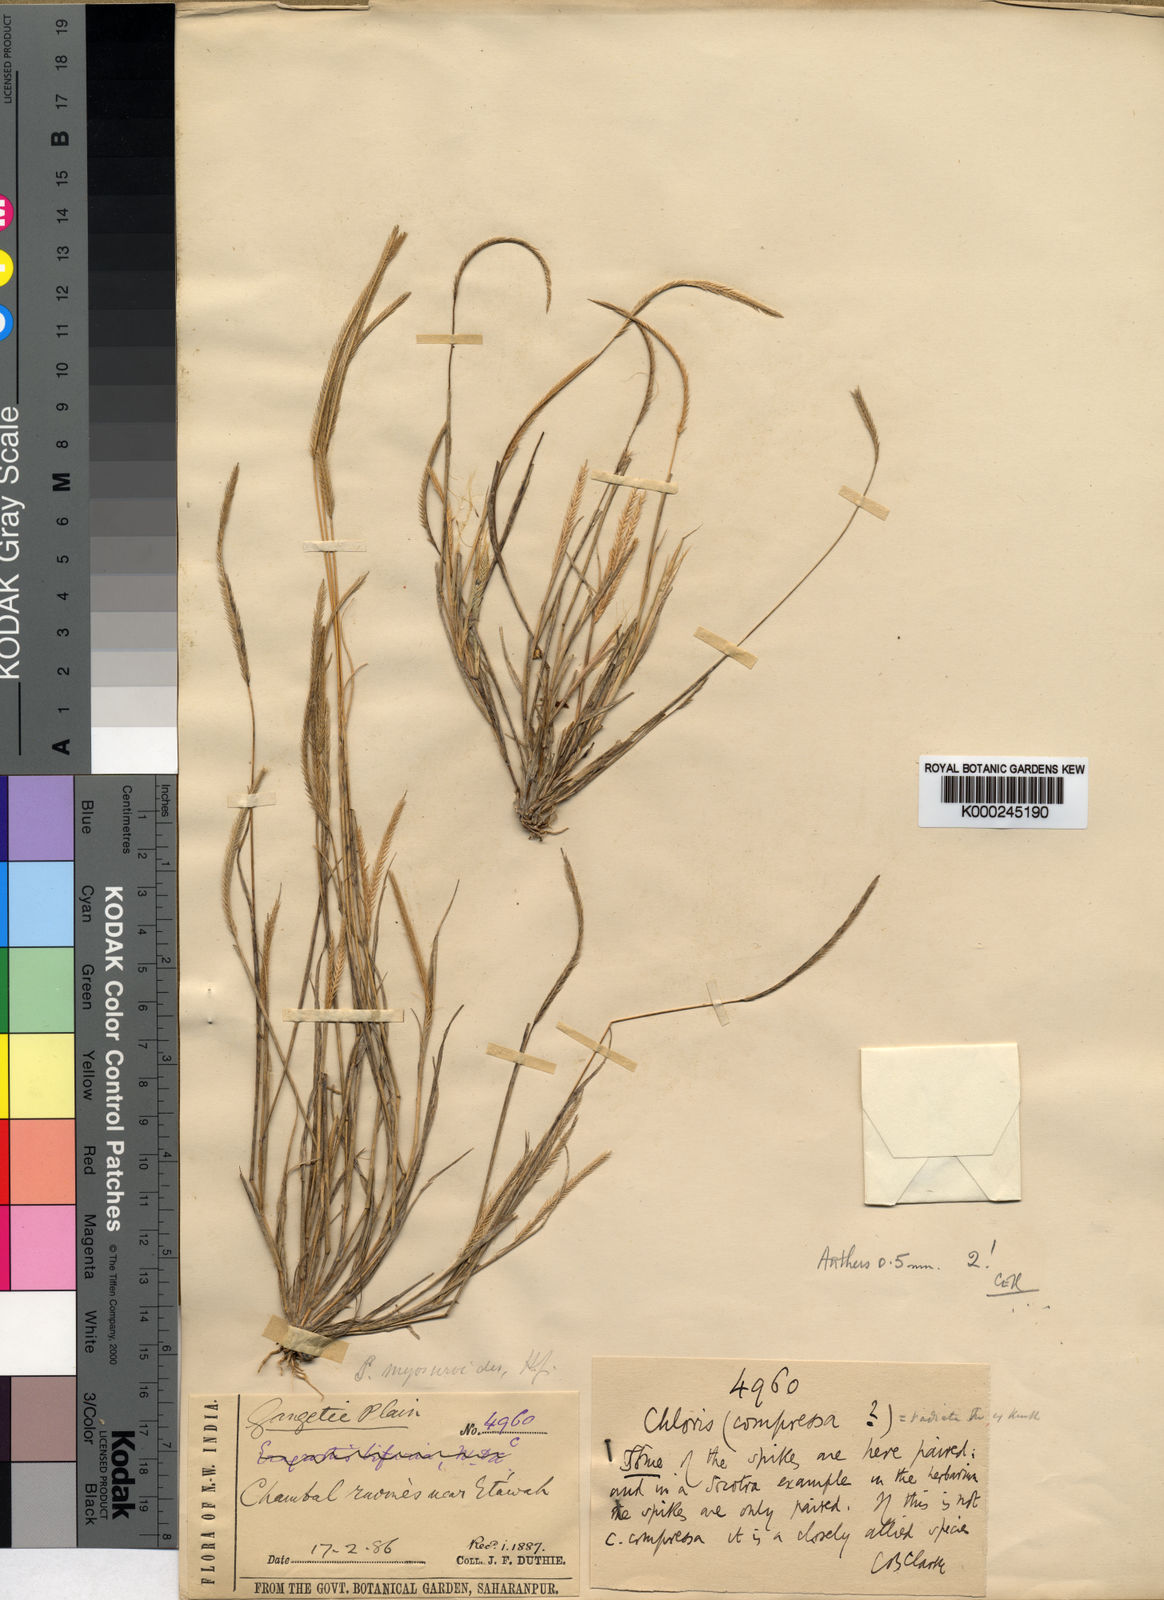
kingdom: Plantae
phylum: Tracheophyta
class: Liliopsida
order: Poales
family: Poaceae
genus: Schoenefeldia
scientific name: Schoenefeldia gracilis
